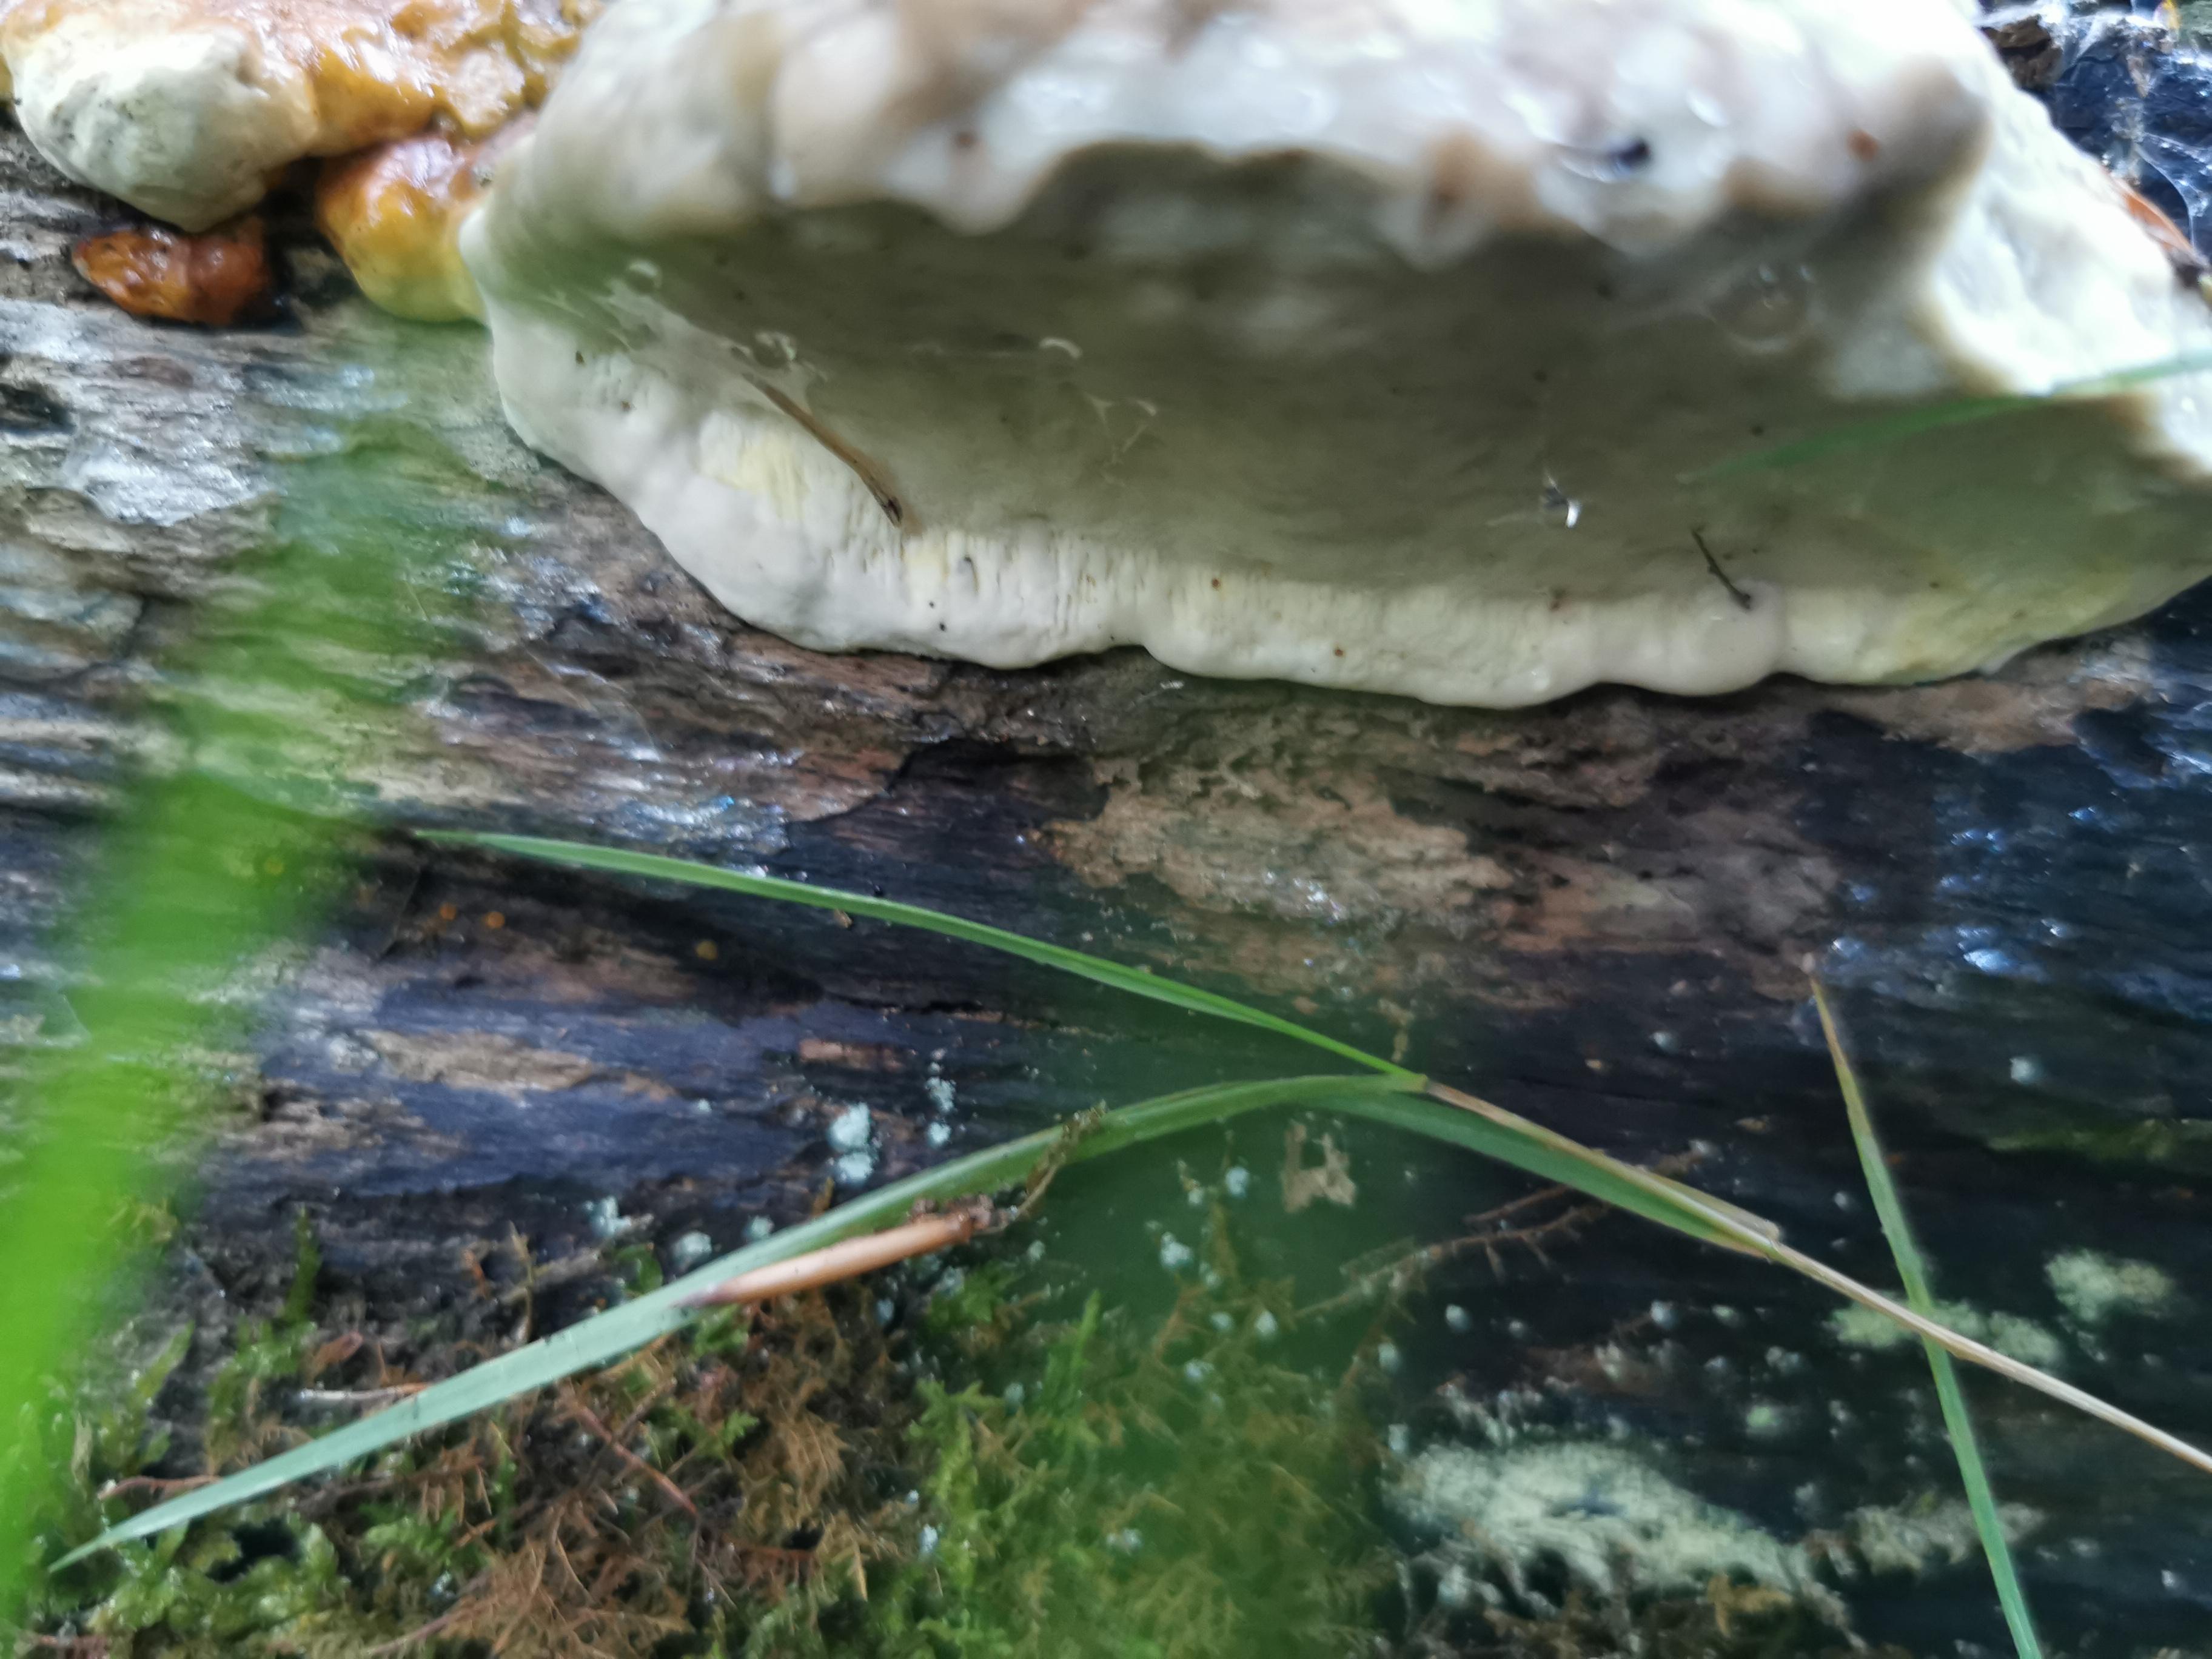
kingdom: Fungi
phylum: Basidiomycota
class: Agaricomycetes
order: Polyporales
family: Fomitopsidaceae
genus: Fomitopsis
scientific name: Fomitopsis pinicola
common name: randbæltet hovporesvamp
